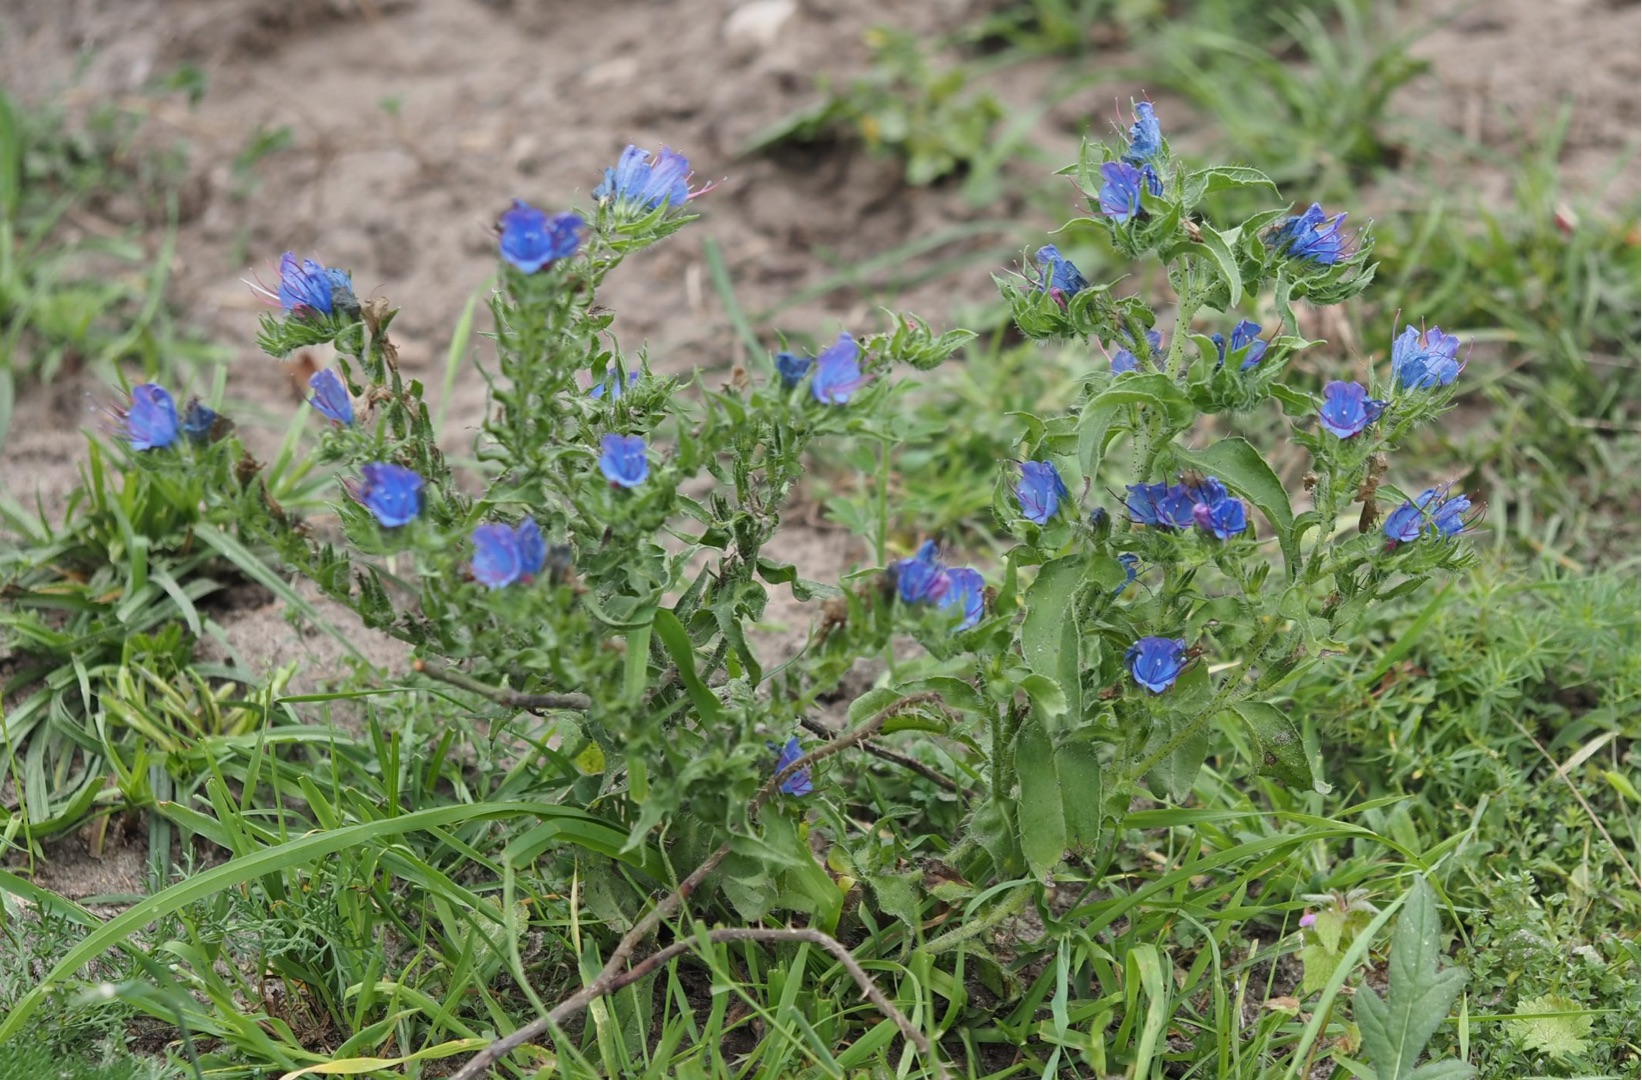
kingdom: Plantae
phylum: Tracheophyta
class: Magnoliopsida
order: Boraginales
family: Boraginaceae
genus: Echium
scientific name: Echium vulgare
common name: Slangehoved
